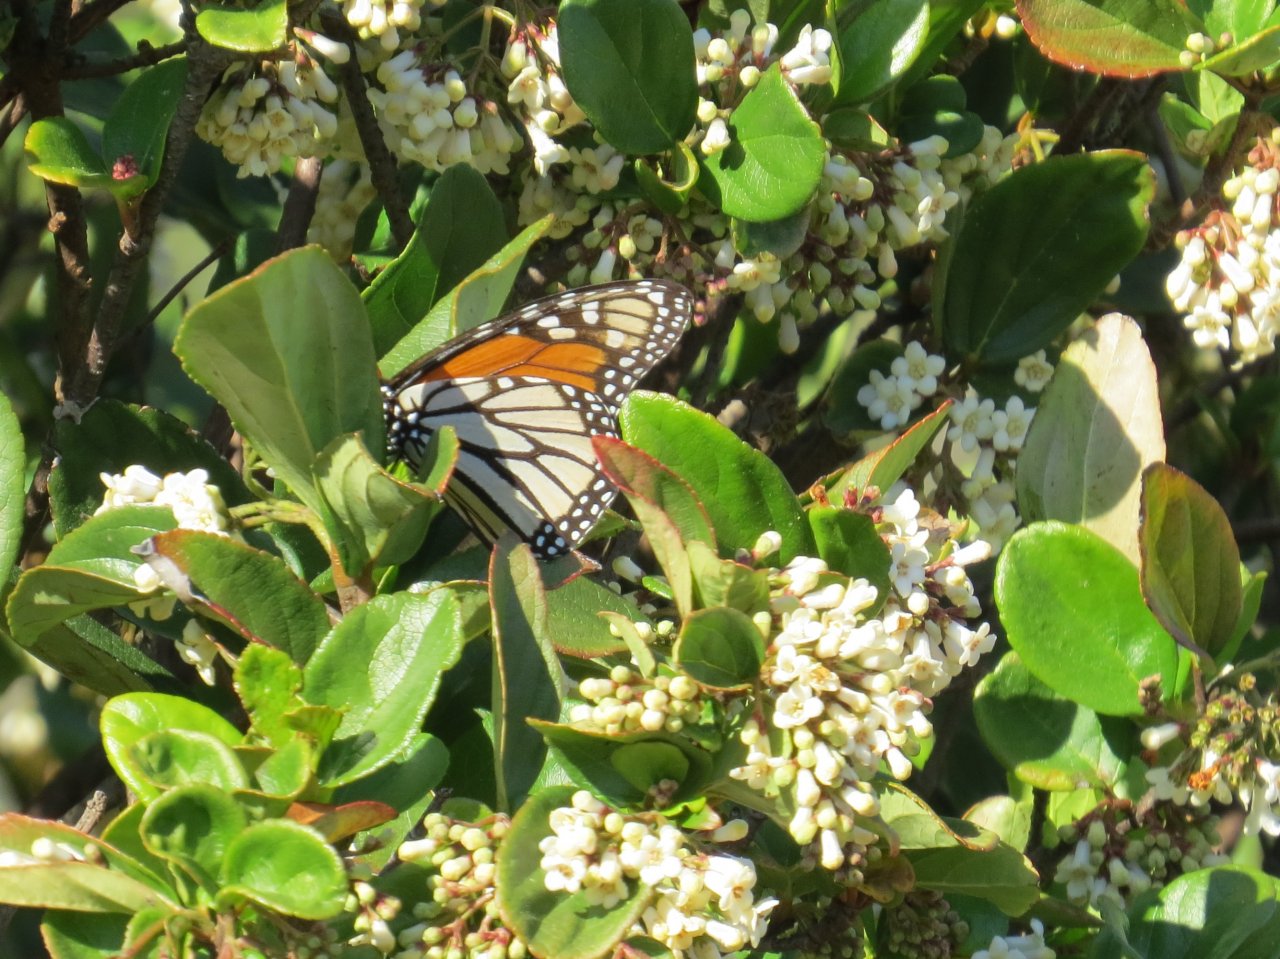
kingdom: Animalia
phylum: Arthropoda
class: Insecta
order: Lepidoptera
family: Nymphalidae
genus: Danaus
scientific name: Danaus plexippus
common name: Monarch
